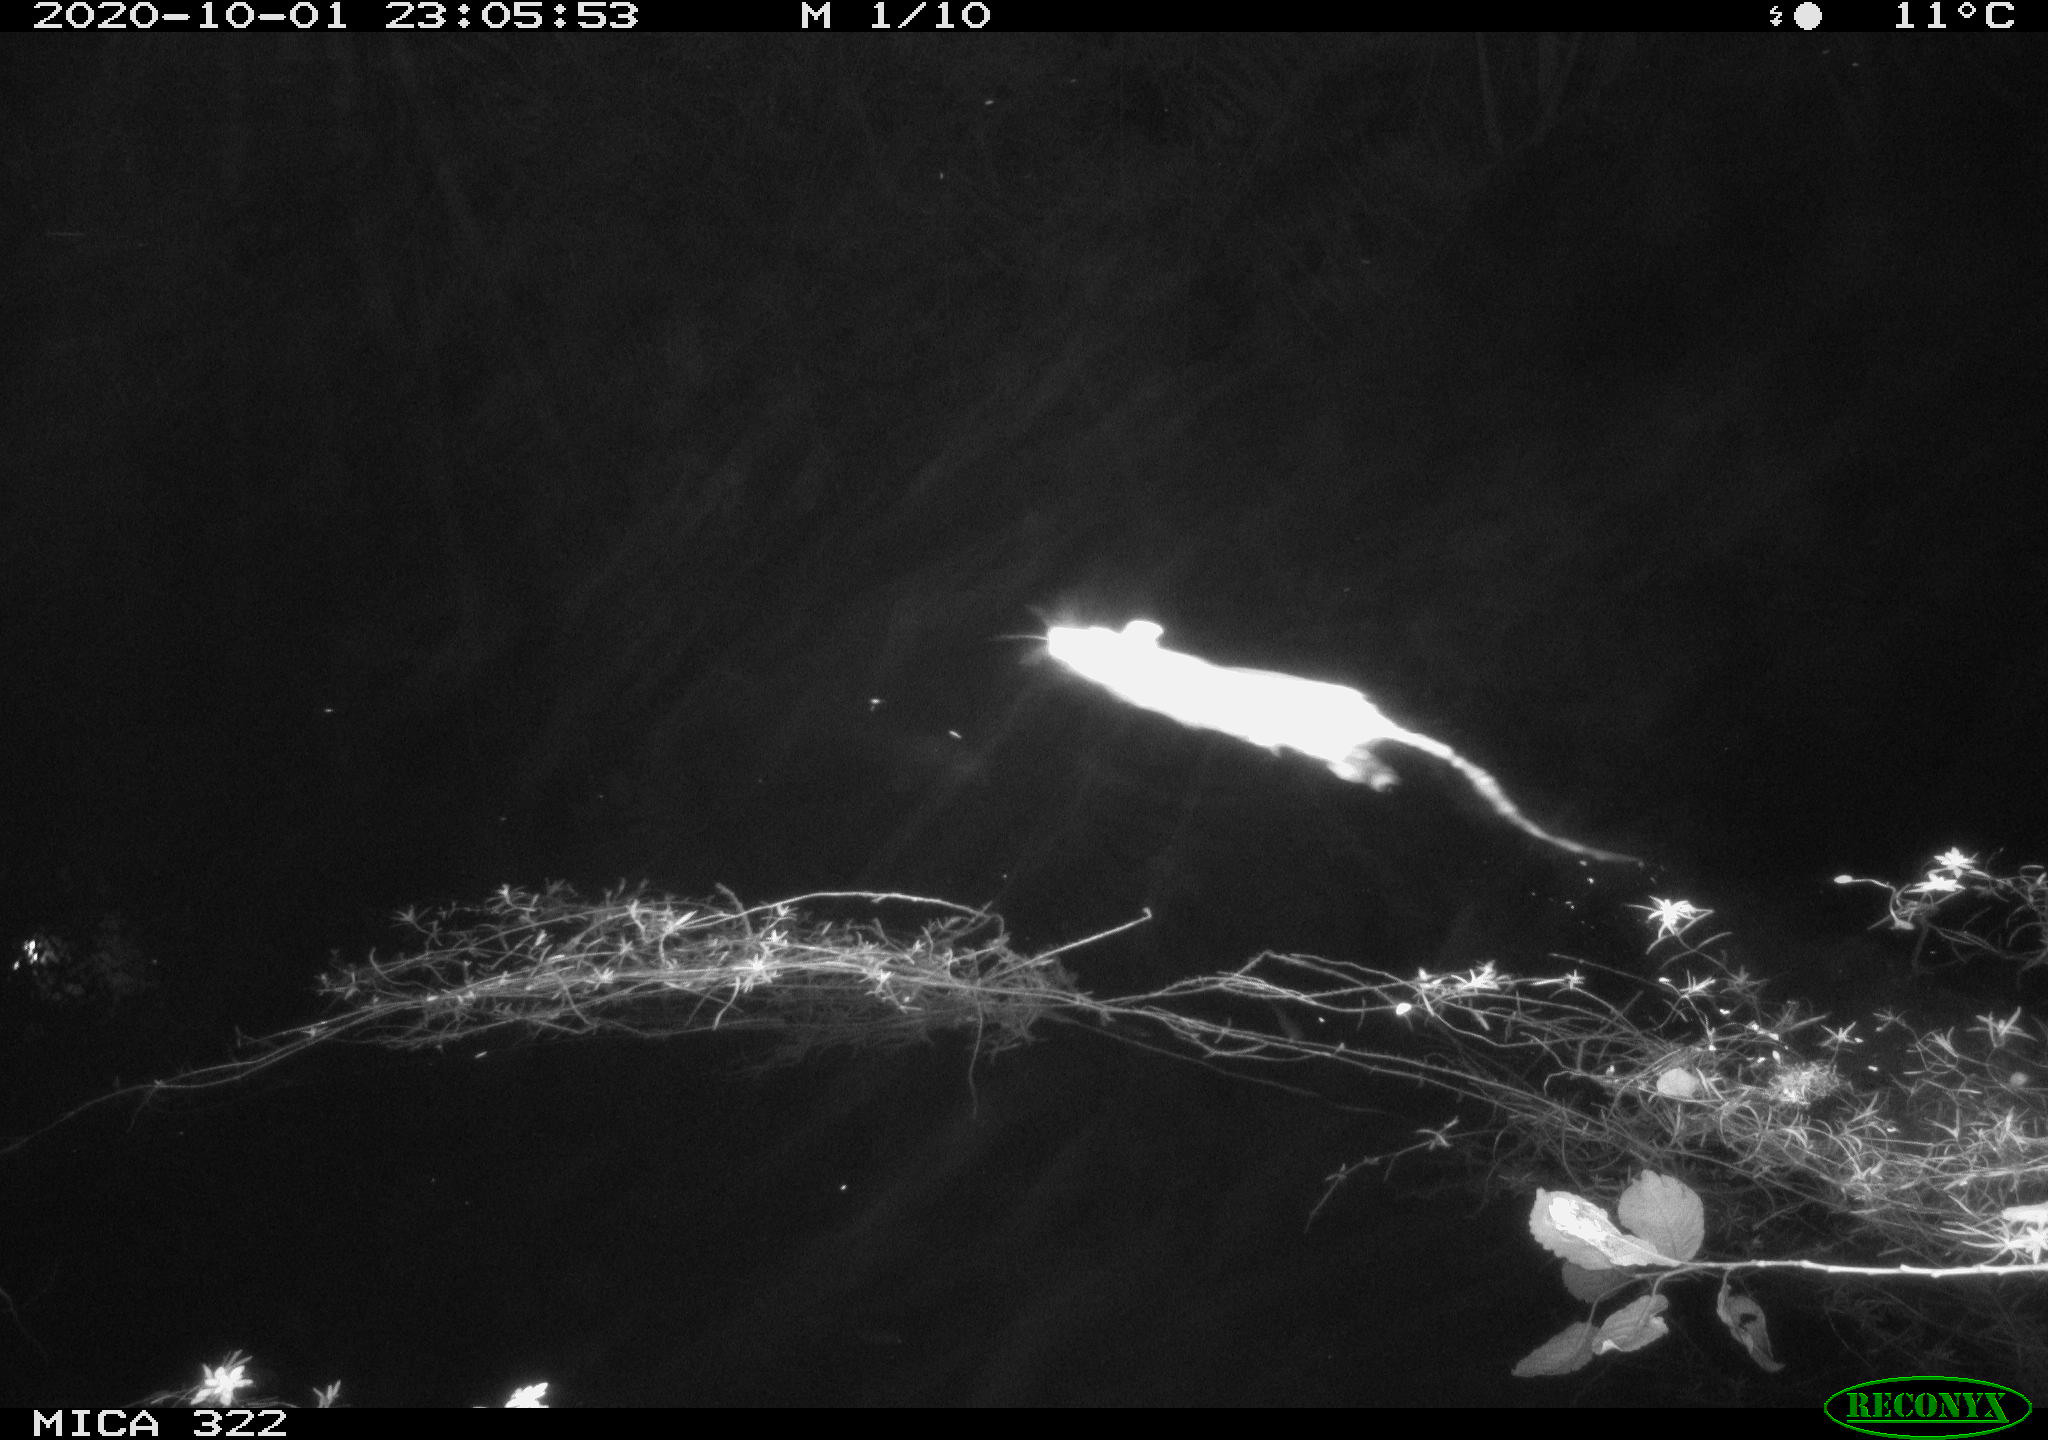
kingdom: Animalia
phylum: Chordata
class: Mammalia
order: Rodentia
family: Muridae
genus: Rattus
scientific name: Rattus norvegicus
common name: Brown rat
